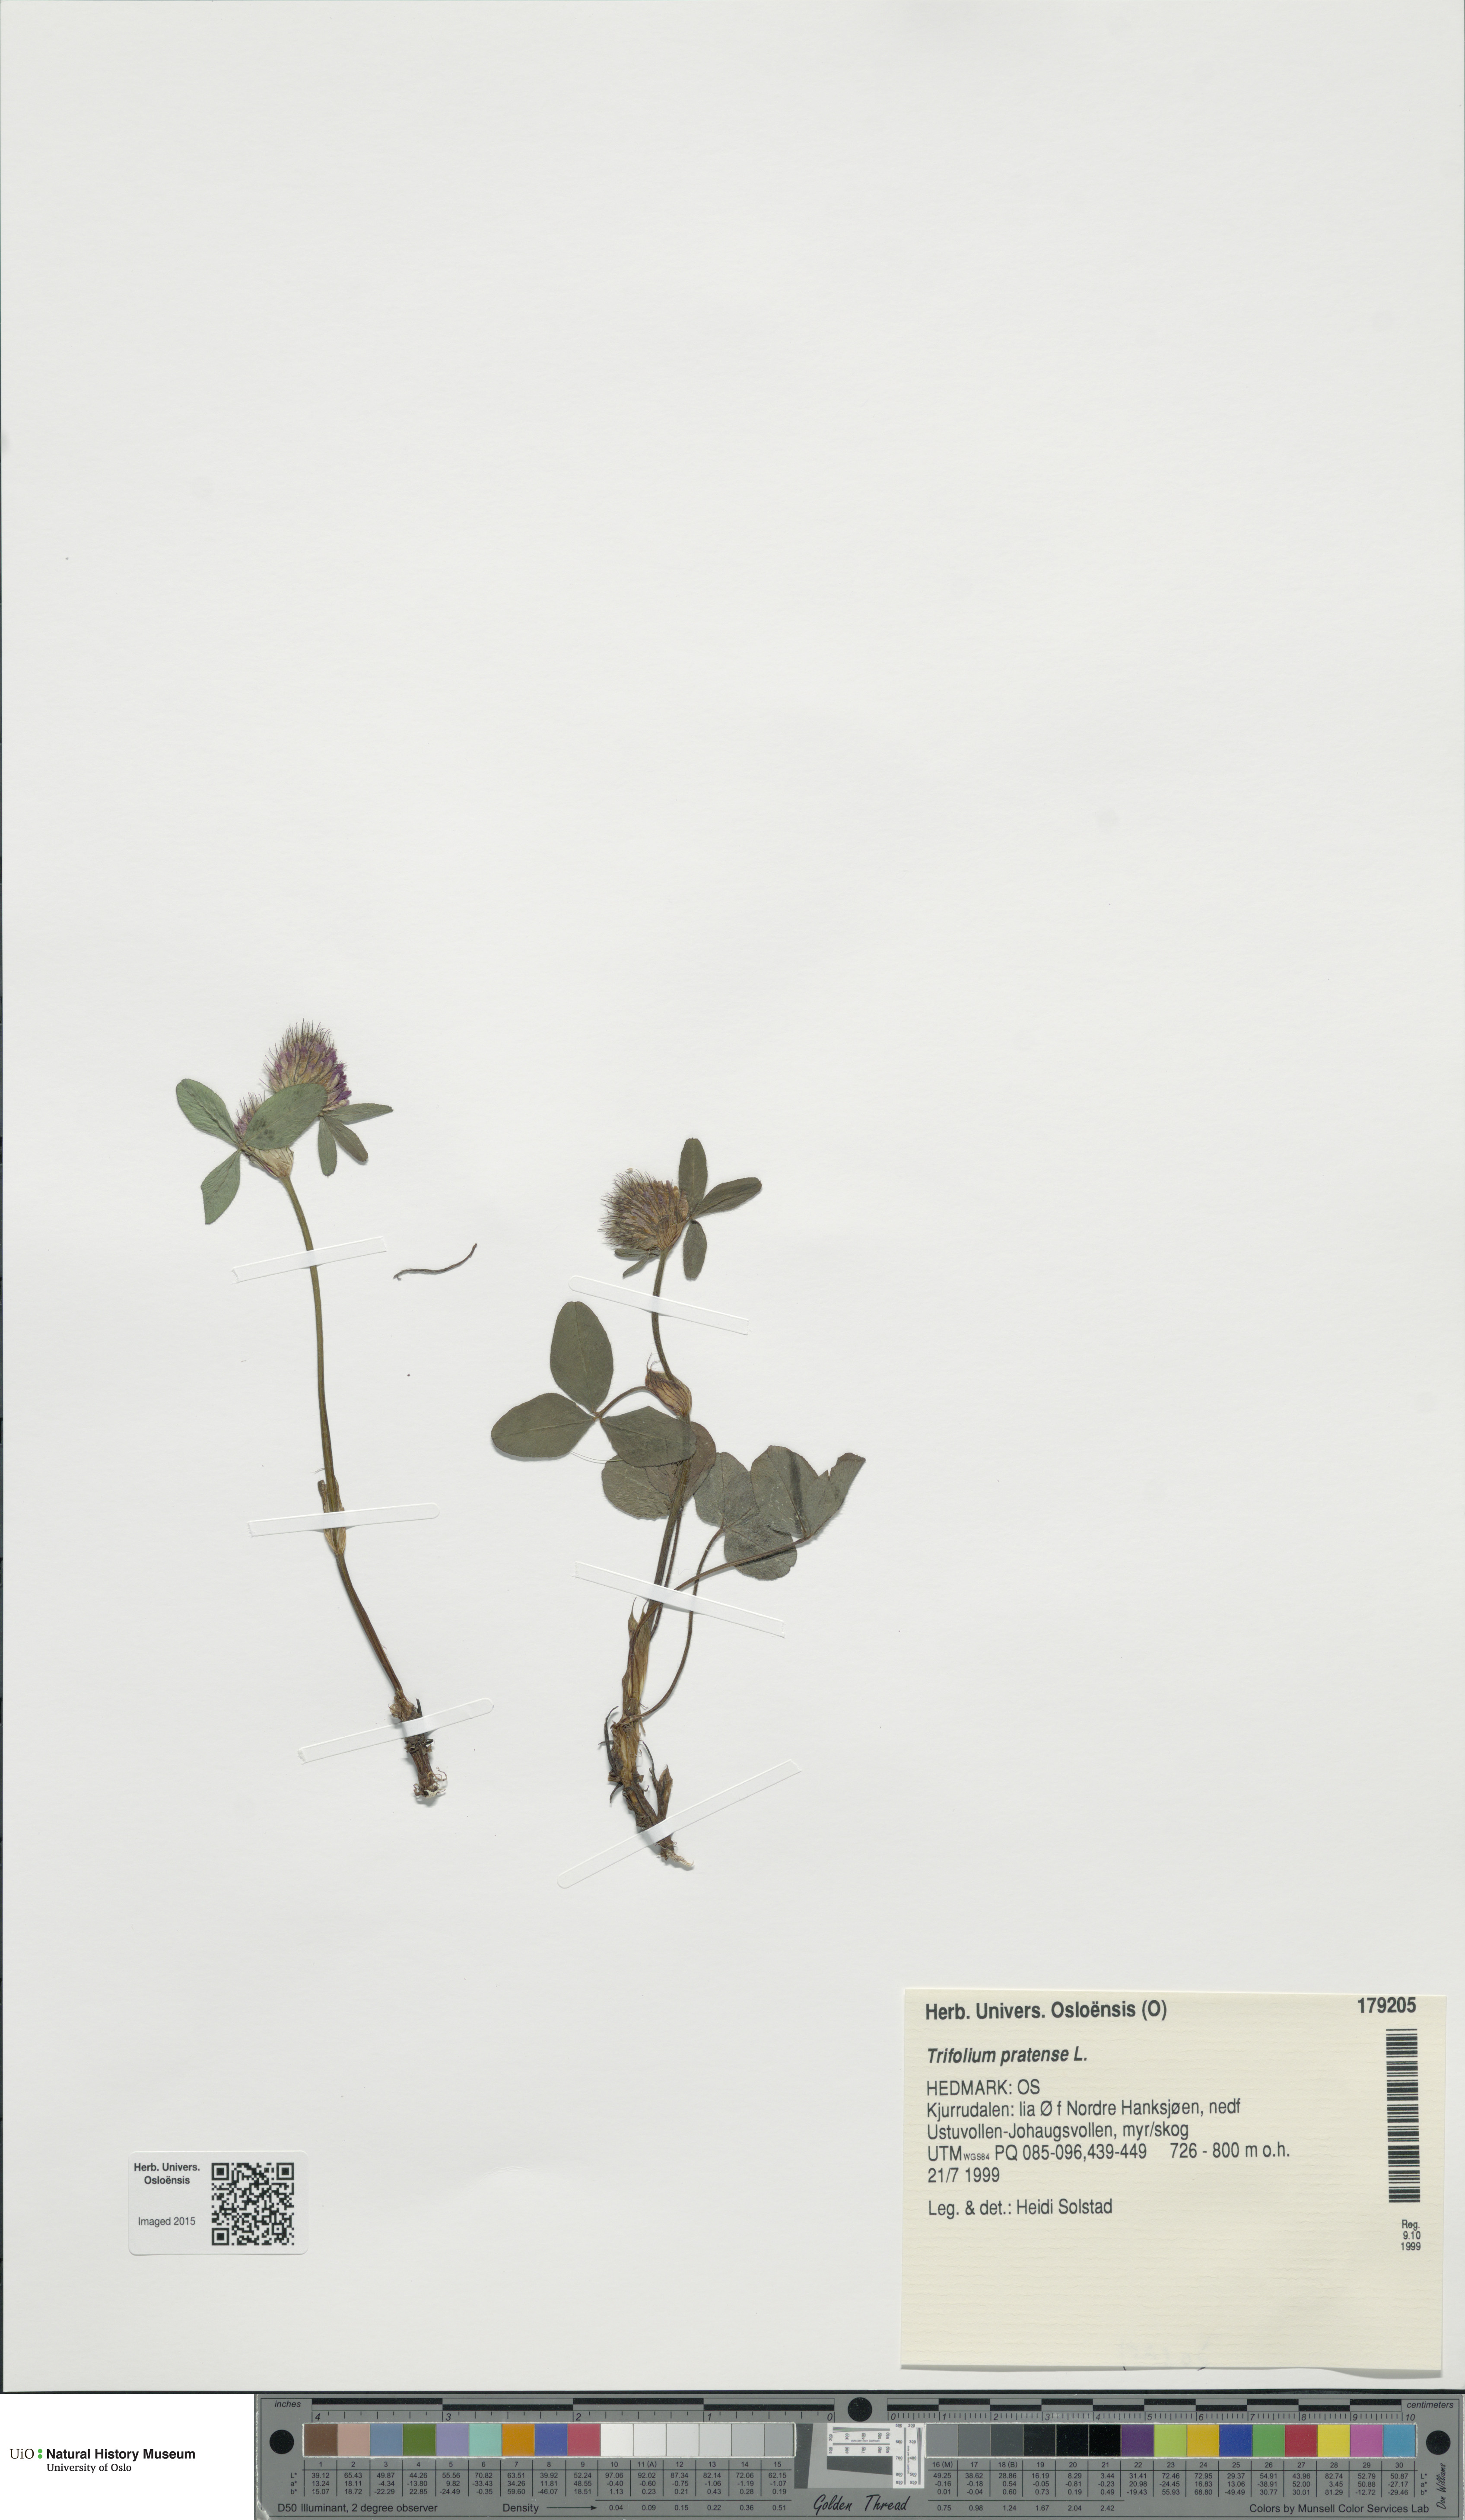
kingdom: Plantae
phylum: Tracheophyta
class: Magnoliopsida
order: Fabales
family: Fabaceae
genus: Trifolium
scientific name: Trifolium pratense
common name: Red clover
